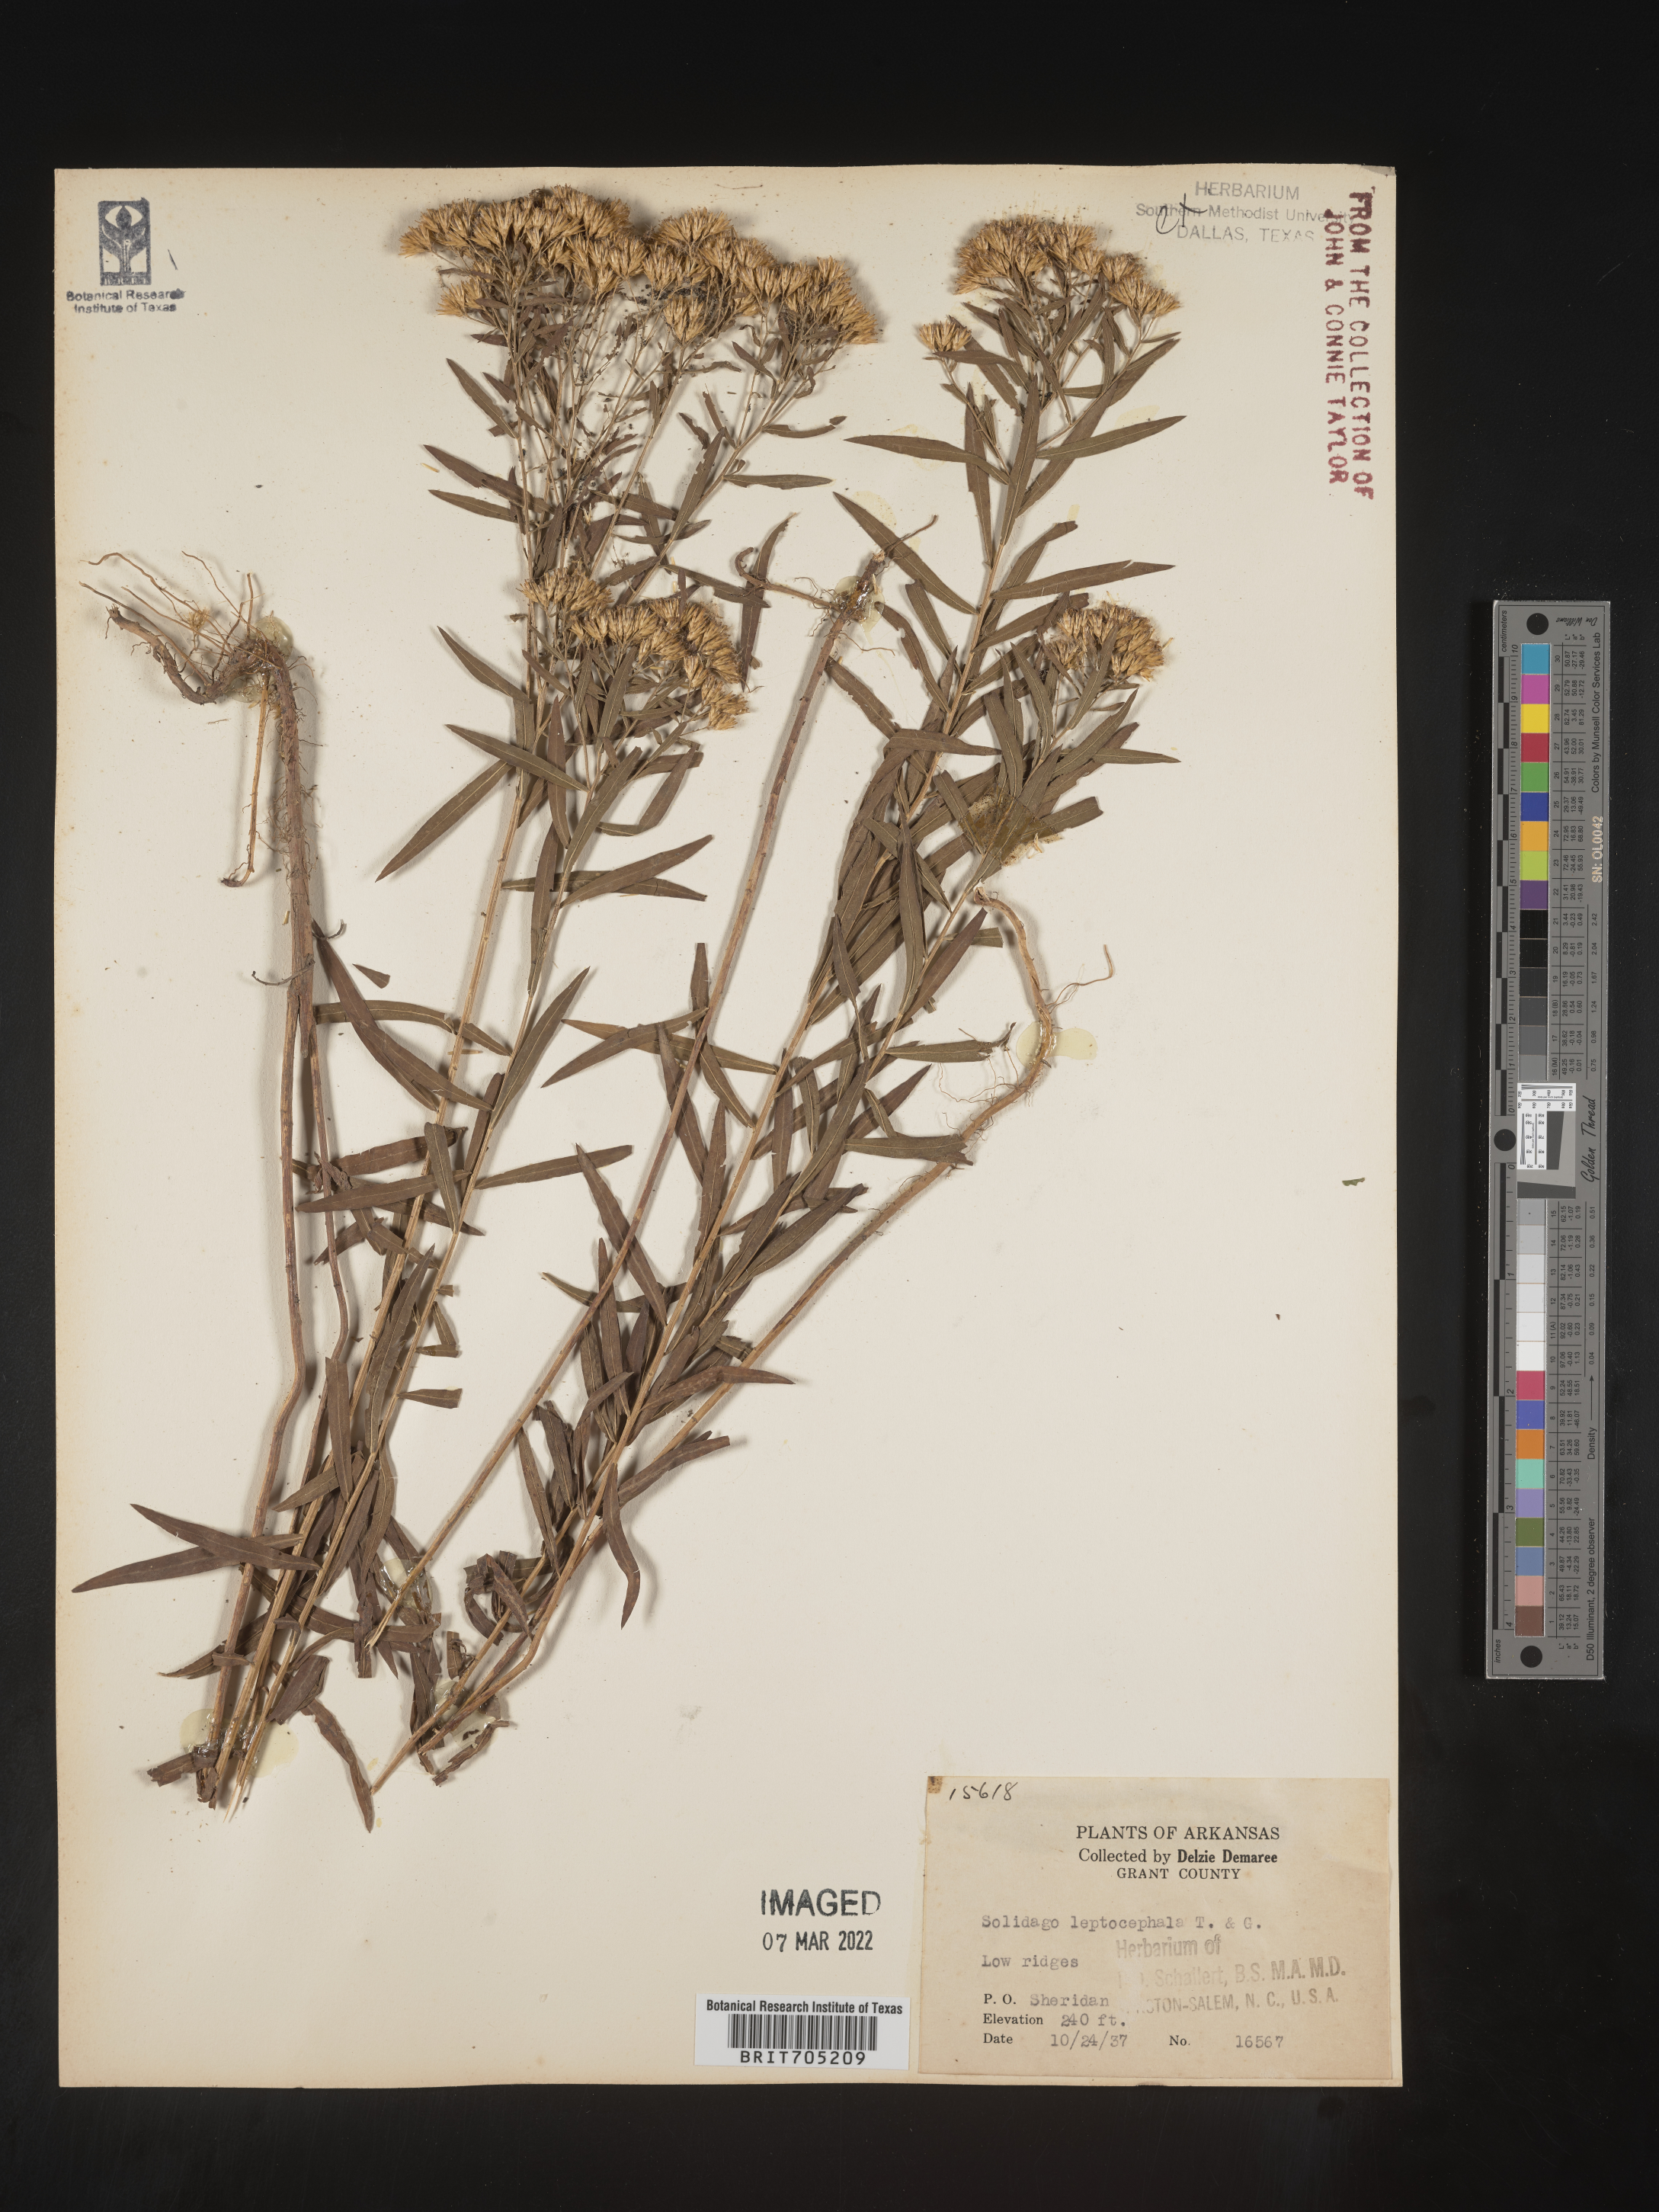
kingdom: Plantae
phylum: Tracheophyta
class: Magnoliopsida
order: Asterales
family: Asteraceae
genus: Euthamia
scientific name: Euthamia leptocephala
